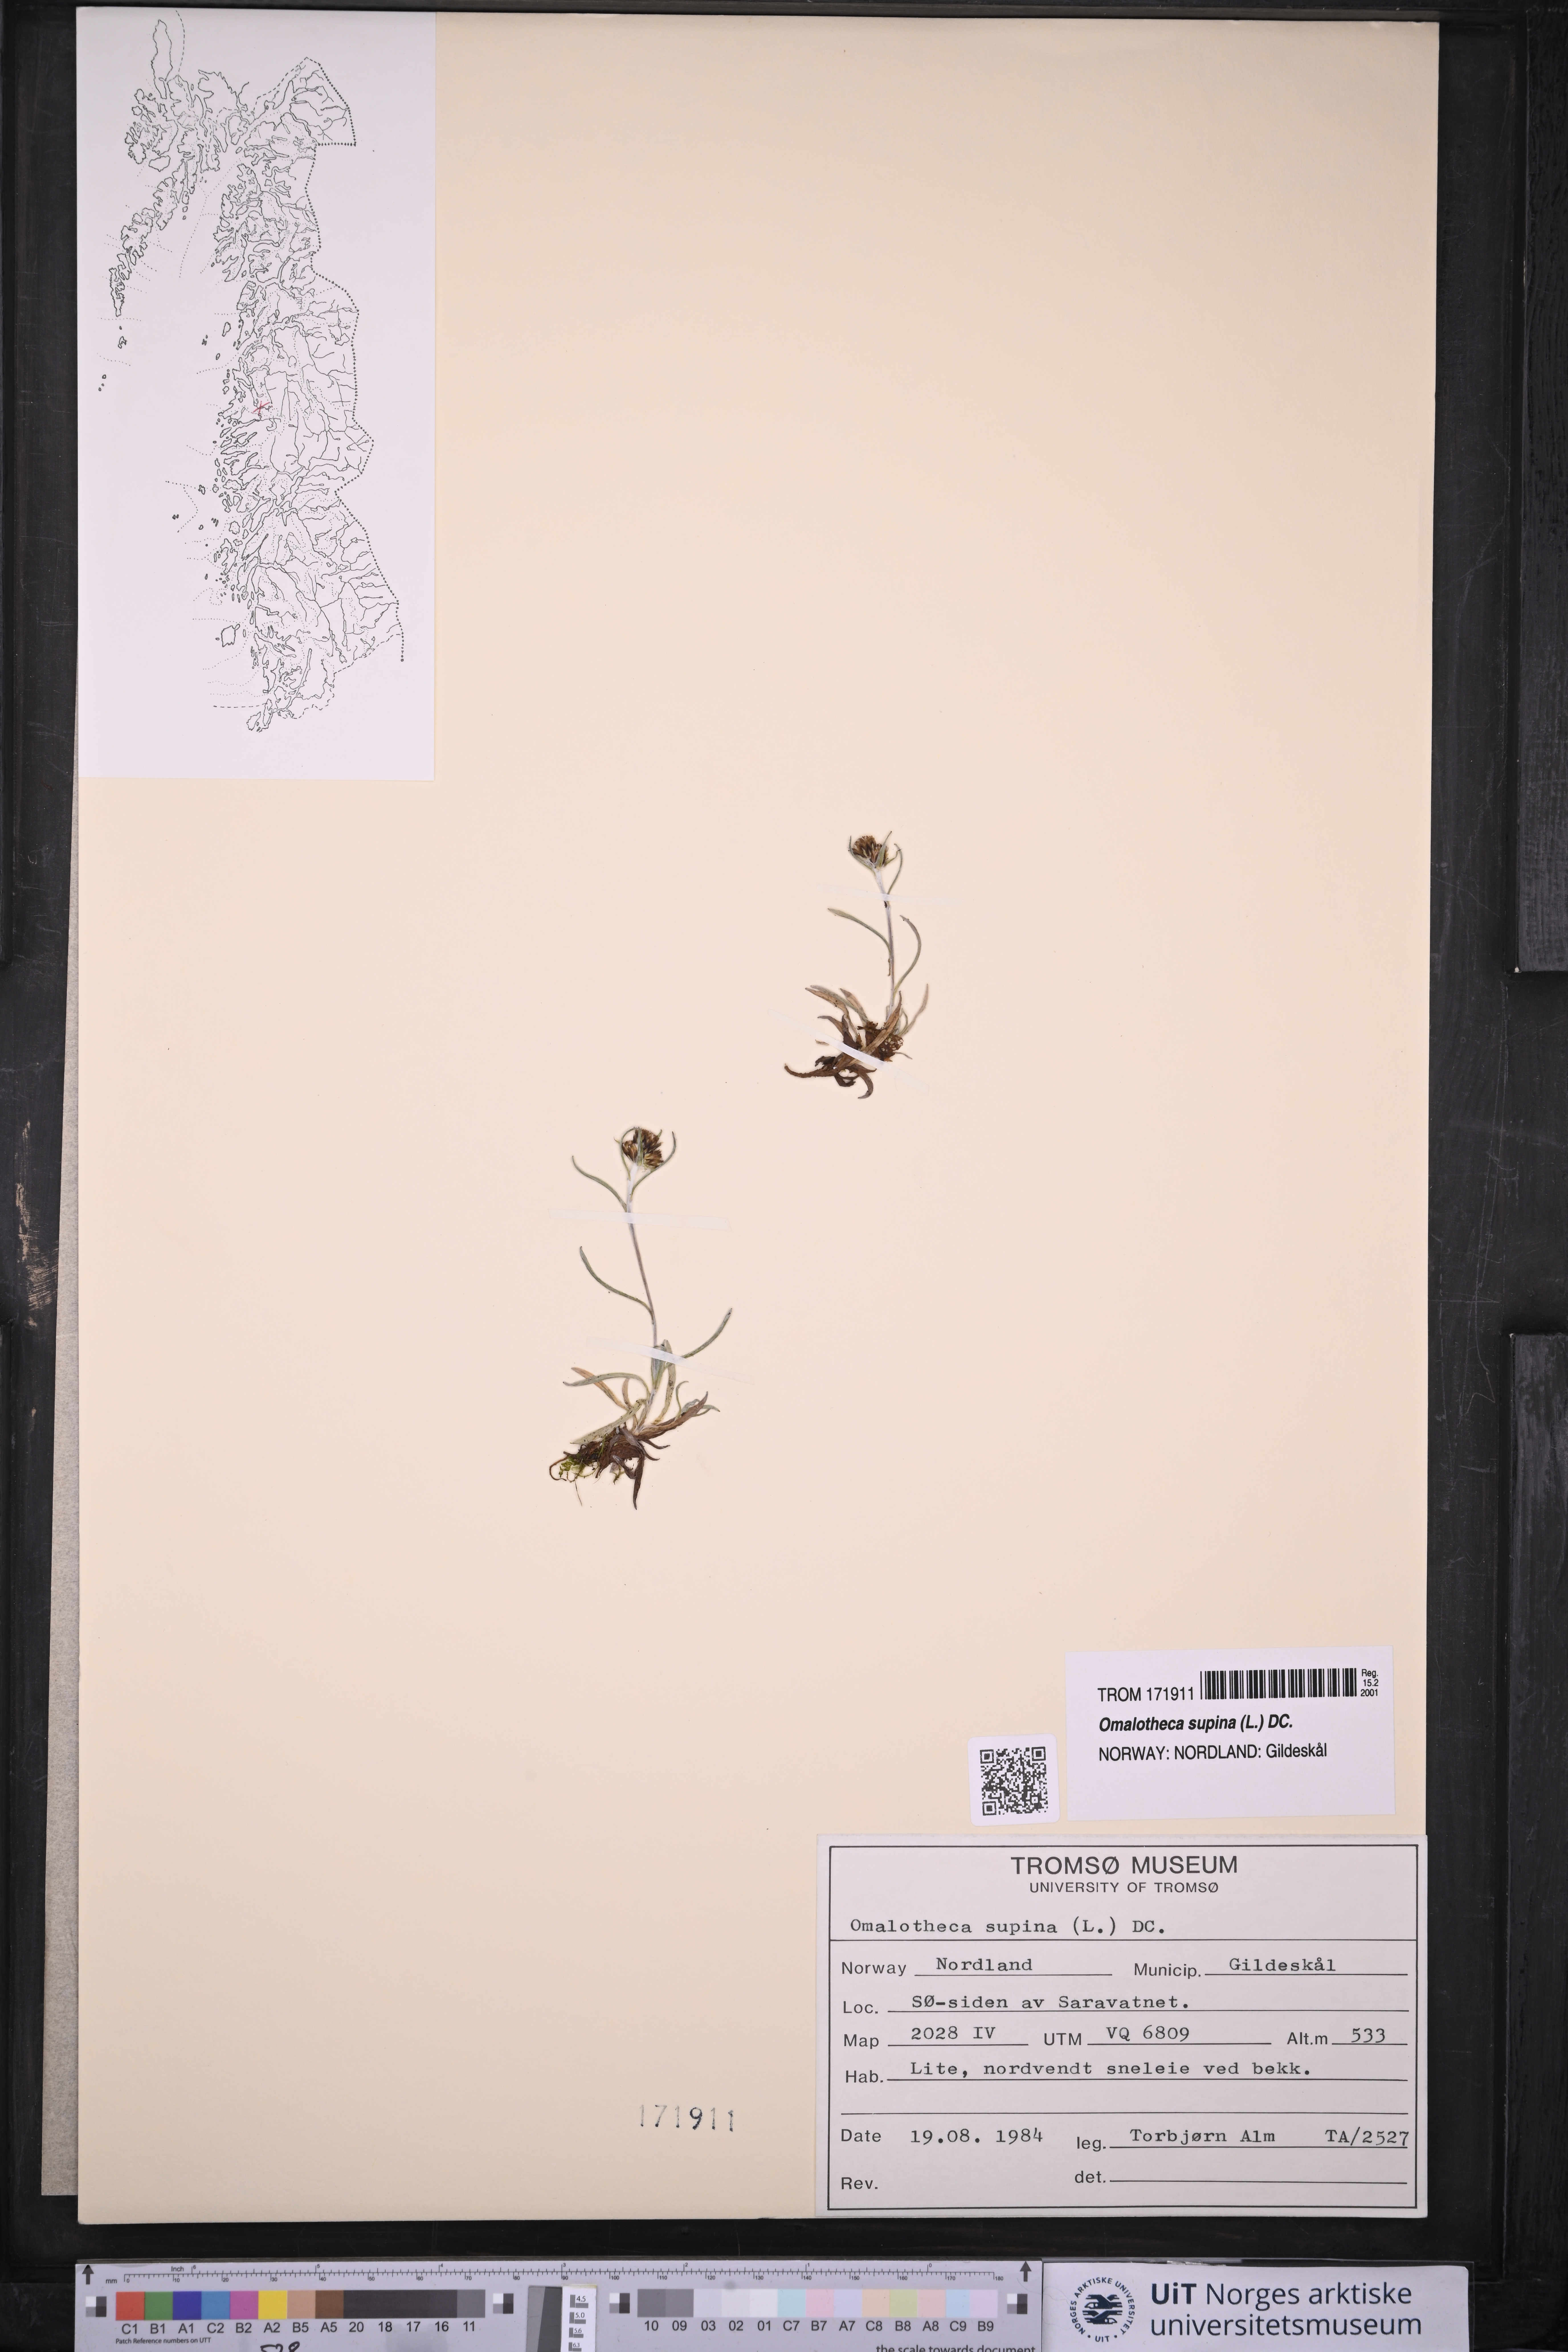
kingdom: Plantae
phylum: Tracheophyta
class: Magnoliopsida
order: Asterales
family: Asteraceae
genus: Omalotheca
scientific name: Omalotheca supina
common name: Alpine arctic-cudweed
